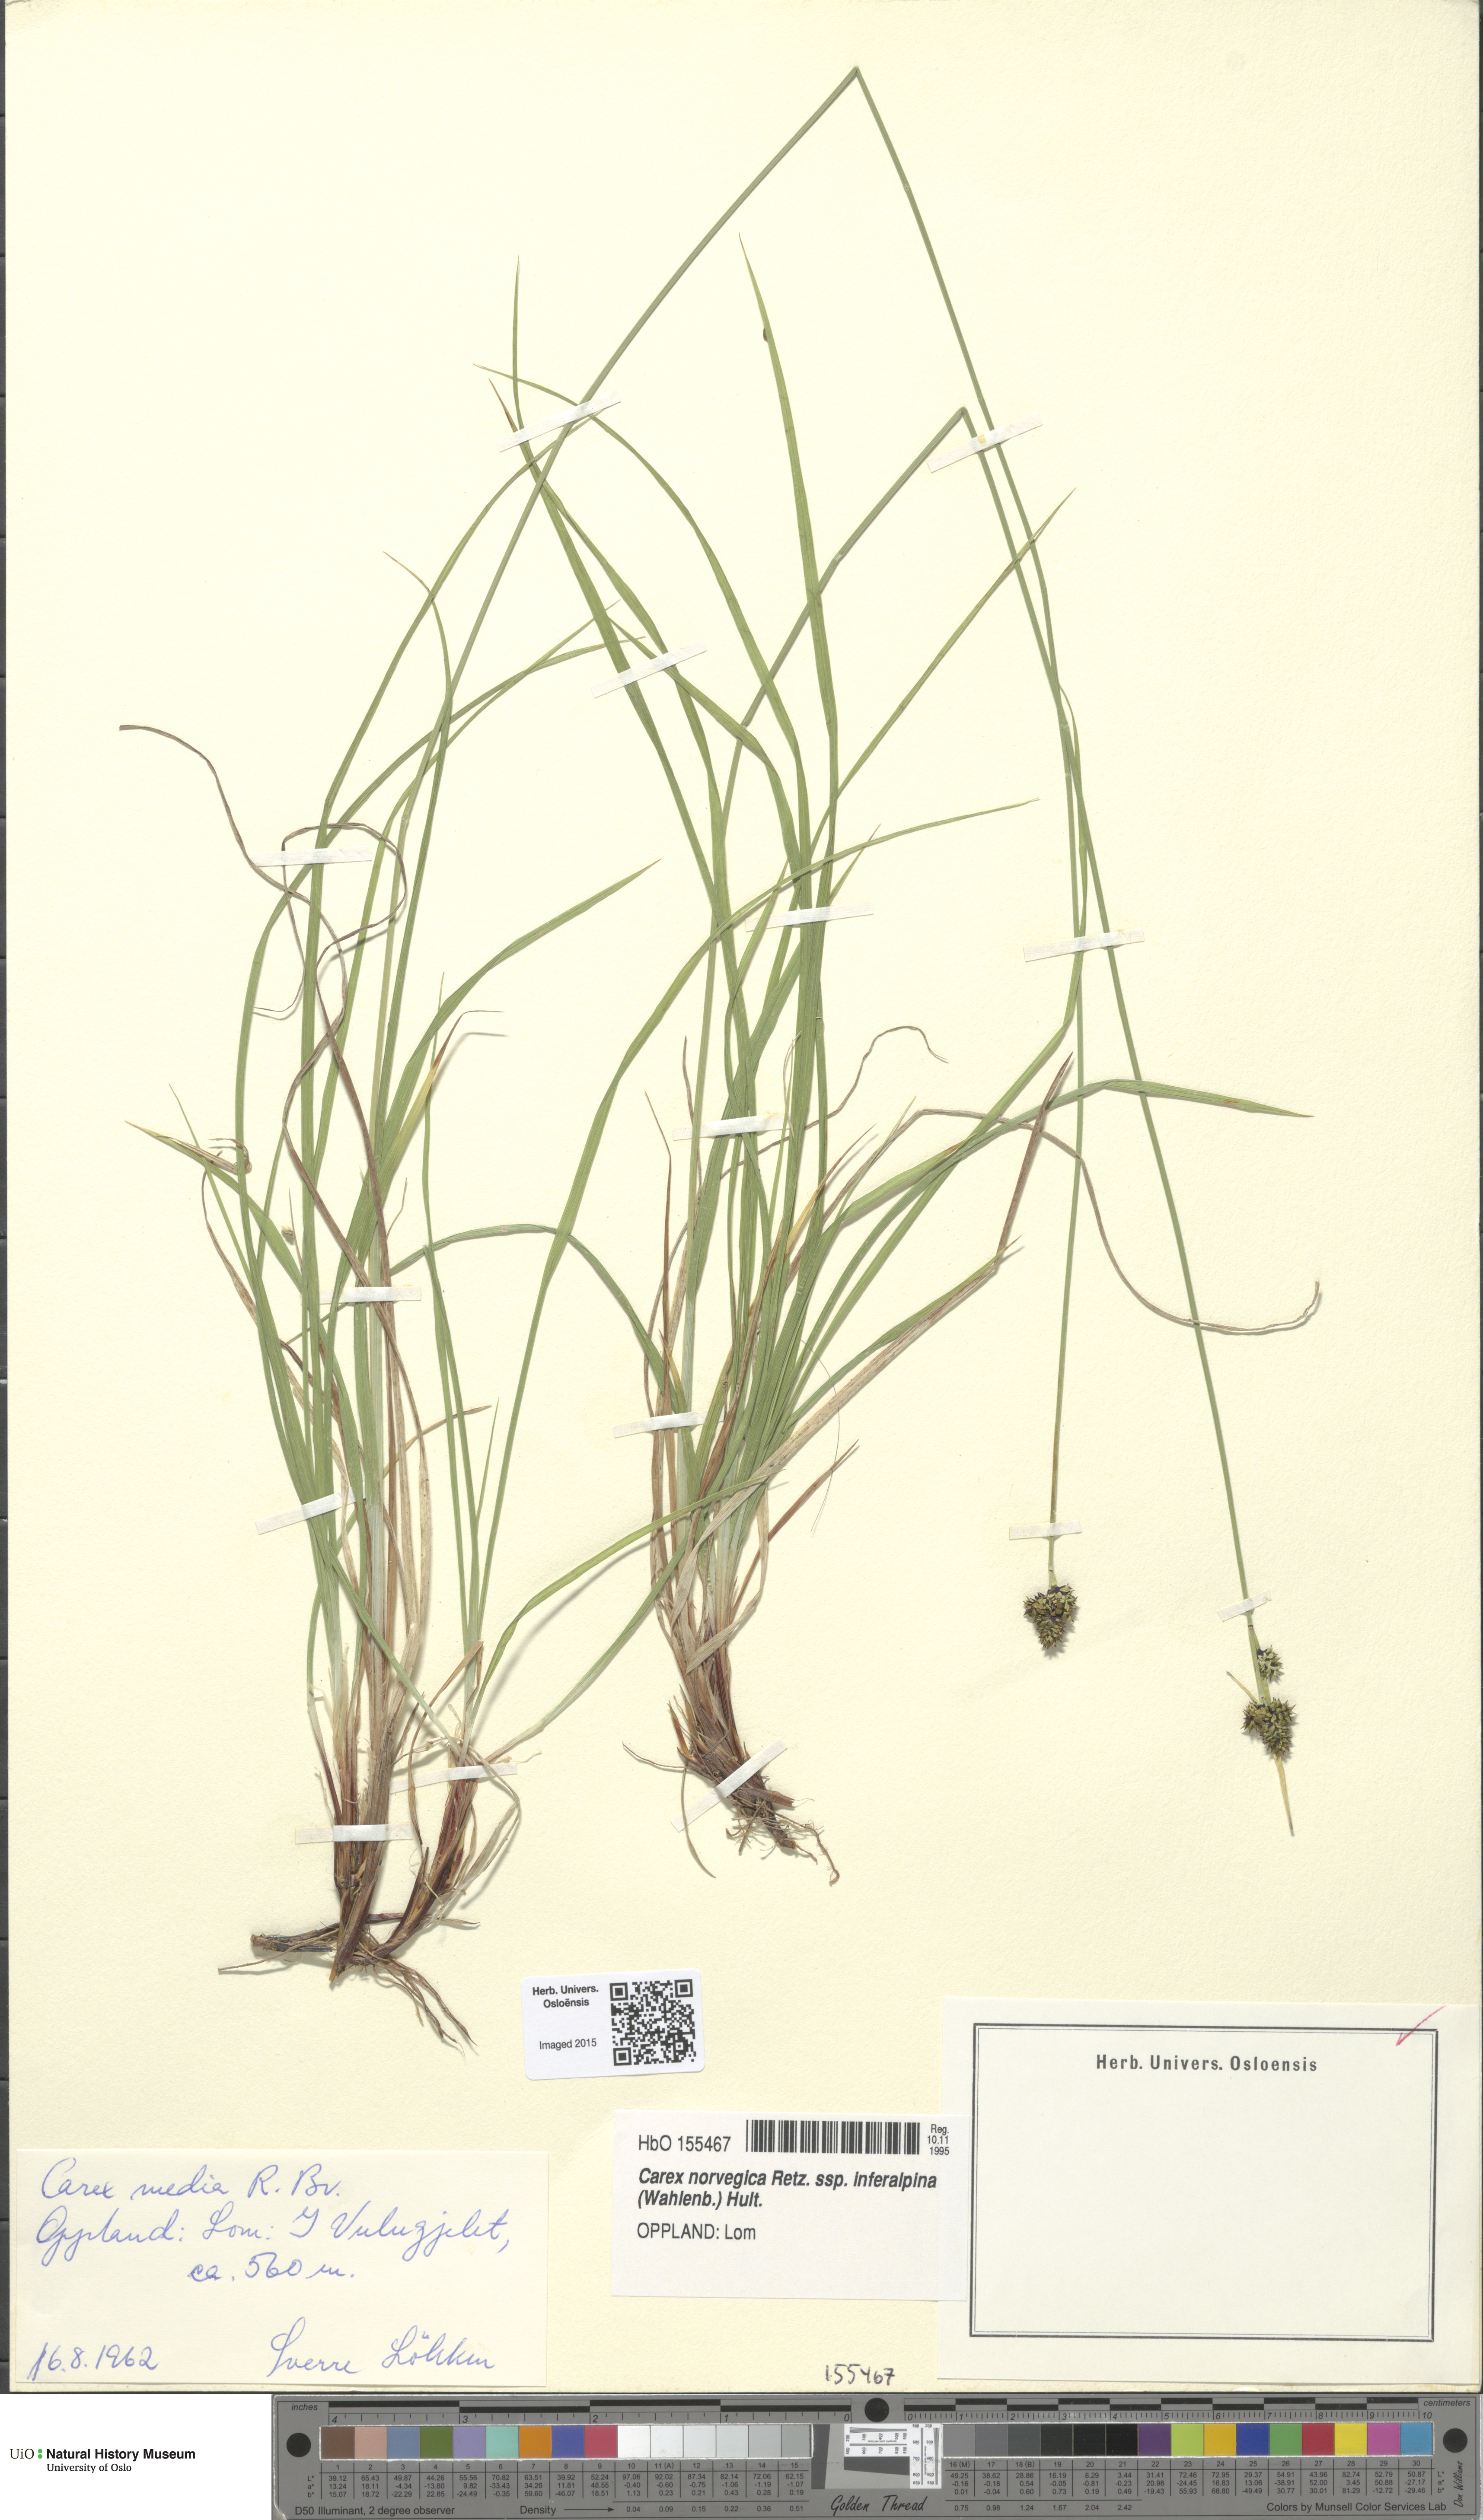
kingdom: Plantae
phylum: Tracheophyta
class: Liliopsida
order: Poales
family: Cyperaceae
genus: Carex
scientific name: Carex media
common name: Alpine sedge
